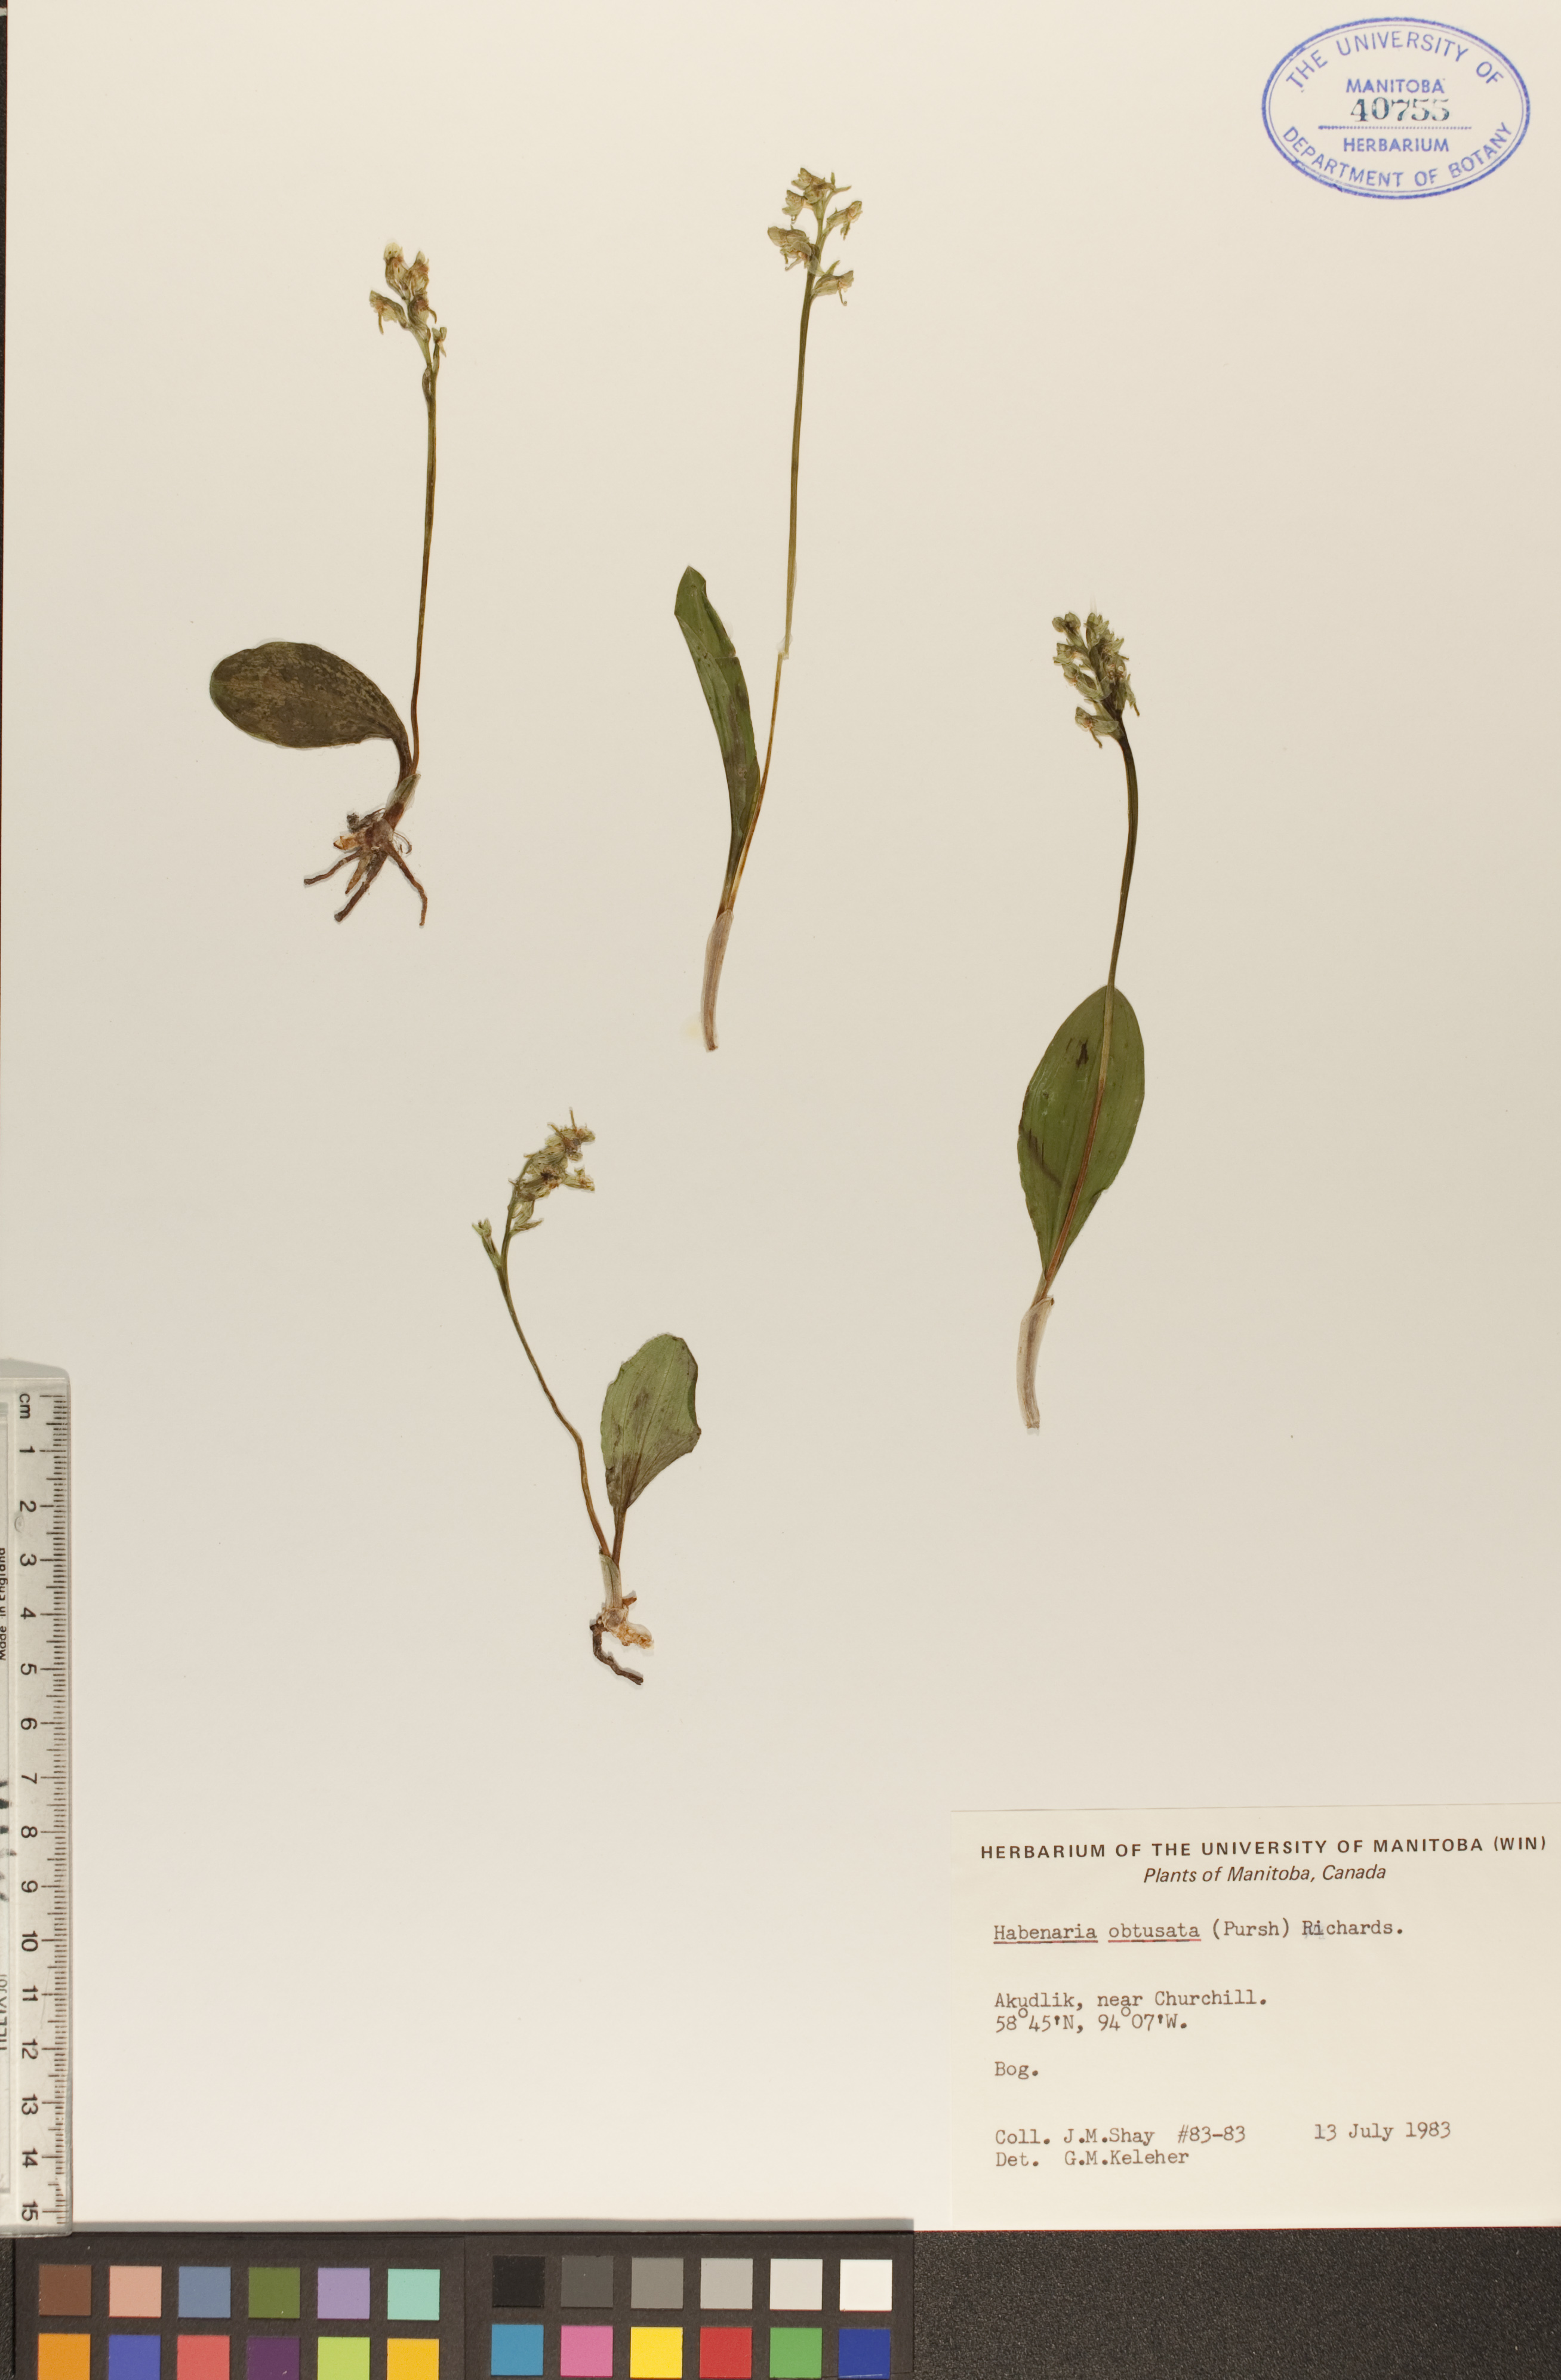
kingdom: Plantae
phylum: Tracheophyta
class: Liliopsida
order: Asparagales
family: Orchidaceae
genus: Platanthera
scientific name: Platanthera obtusata
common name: Blunt bog orchid
